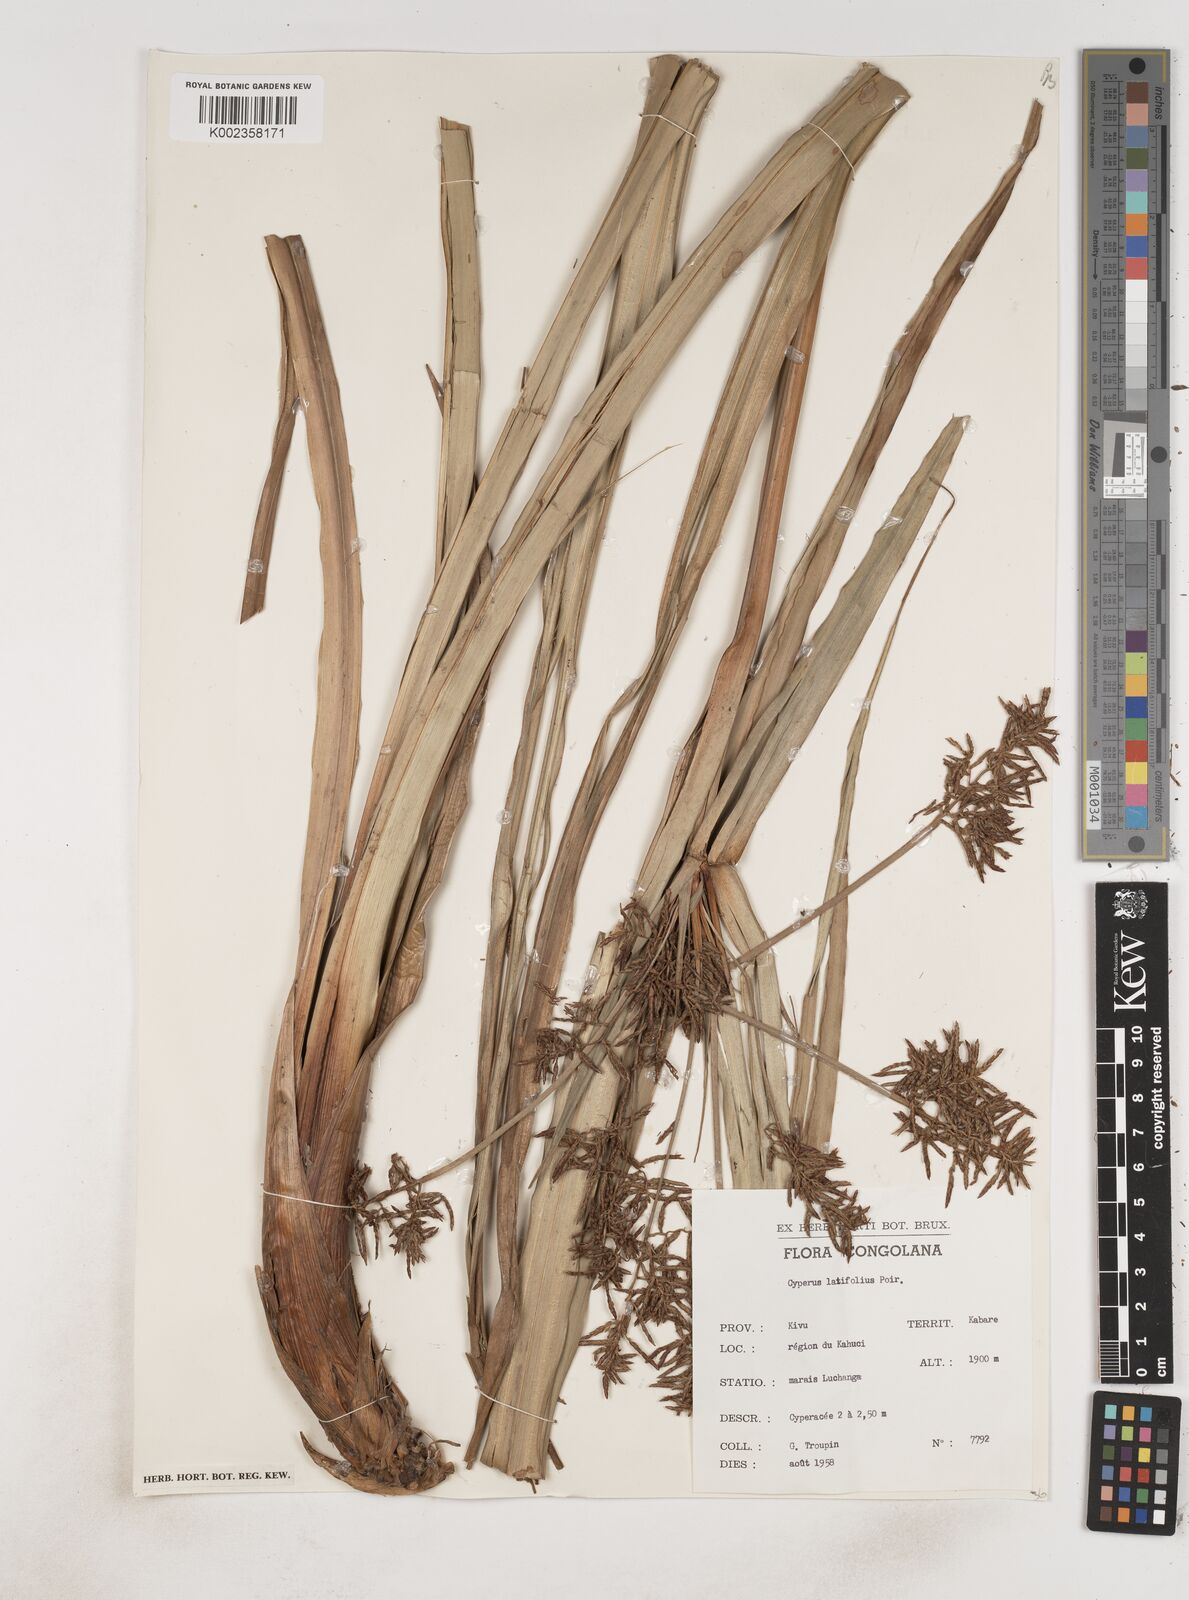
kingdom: Plantae
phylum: Tracheophyta
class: Liliopsida
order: Poales
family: Cyperaceae
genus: Cyperus
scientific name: Cyperus latifolius
